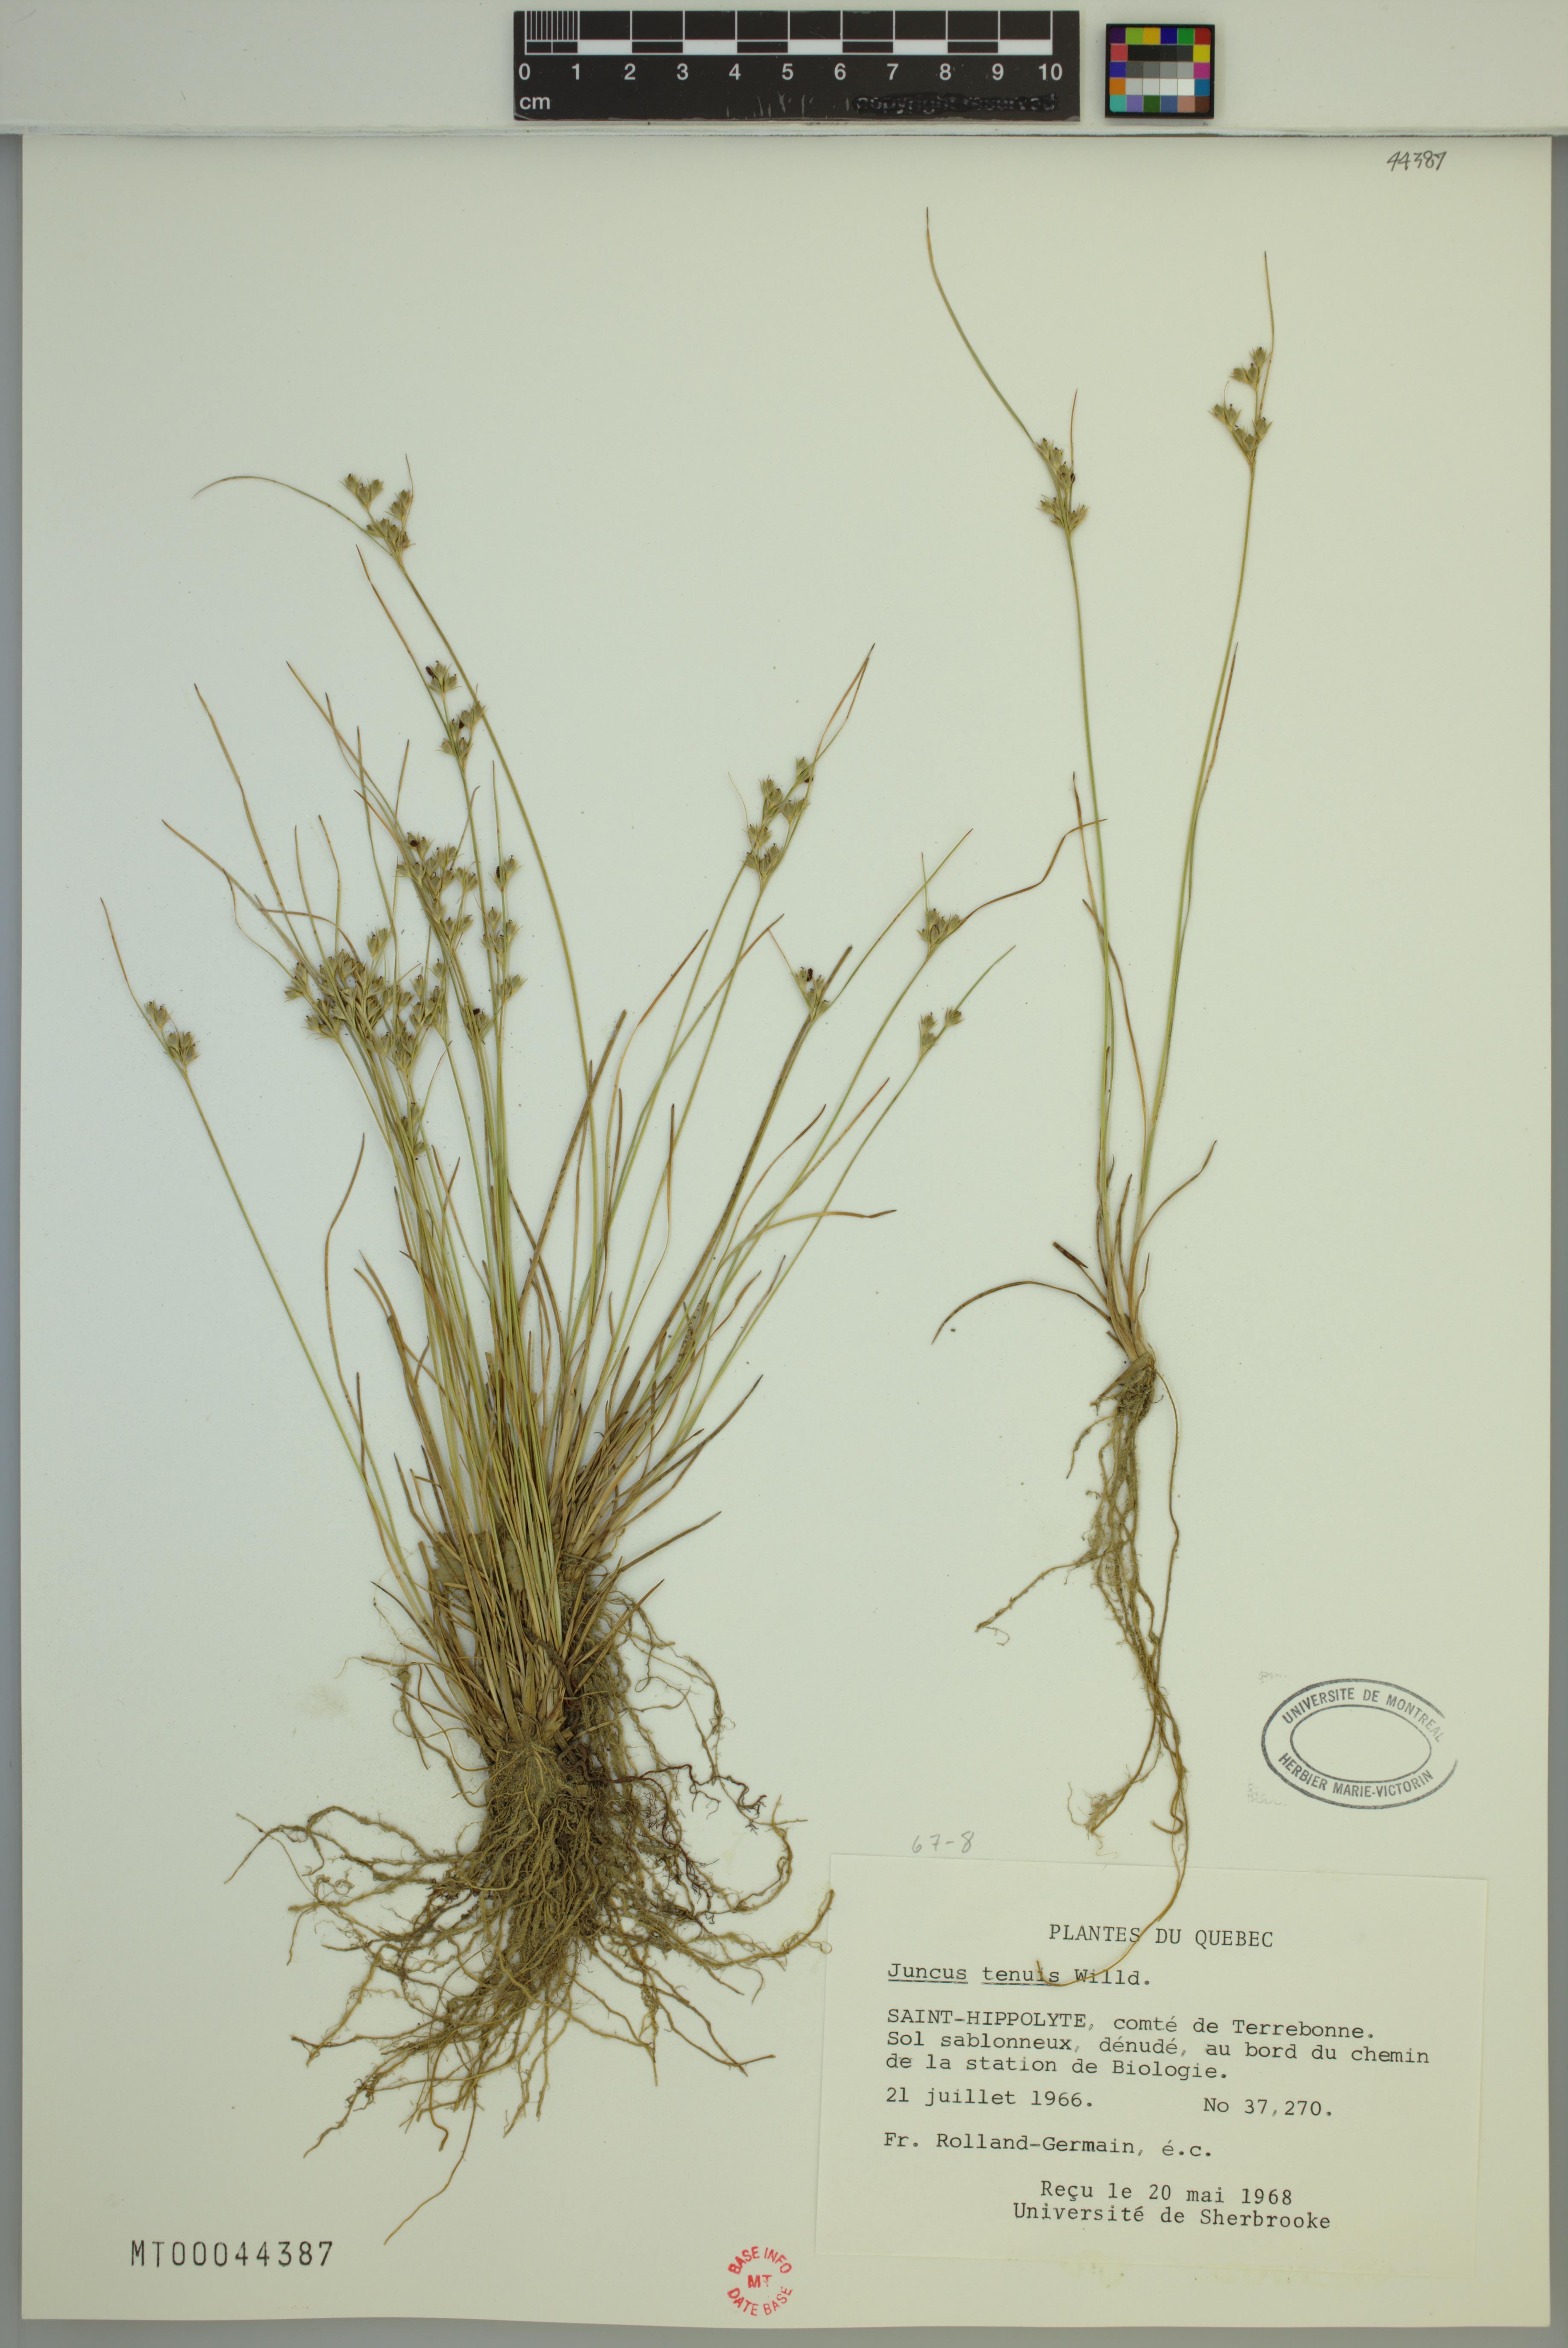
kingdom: Plantae
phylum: Tracheophyta
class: Liliopsida
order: Poales
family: Juncaceae
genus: Juncus
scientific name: Juncus tenuis
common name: Slender rush
